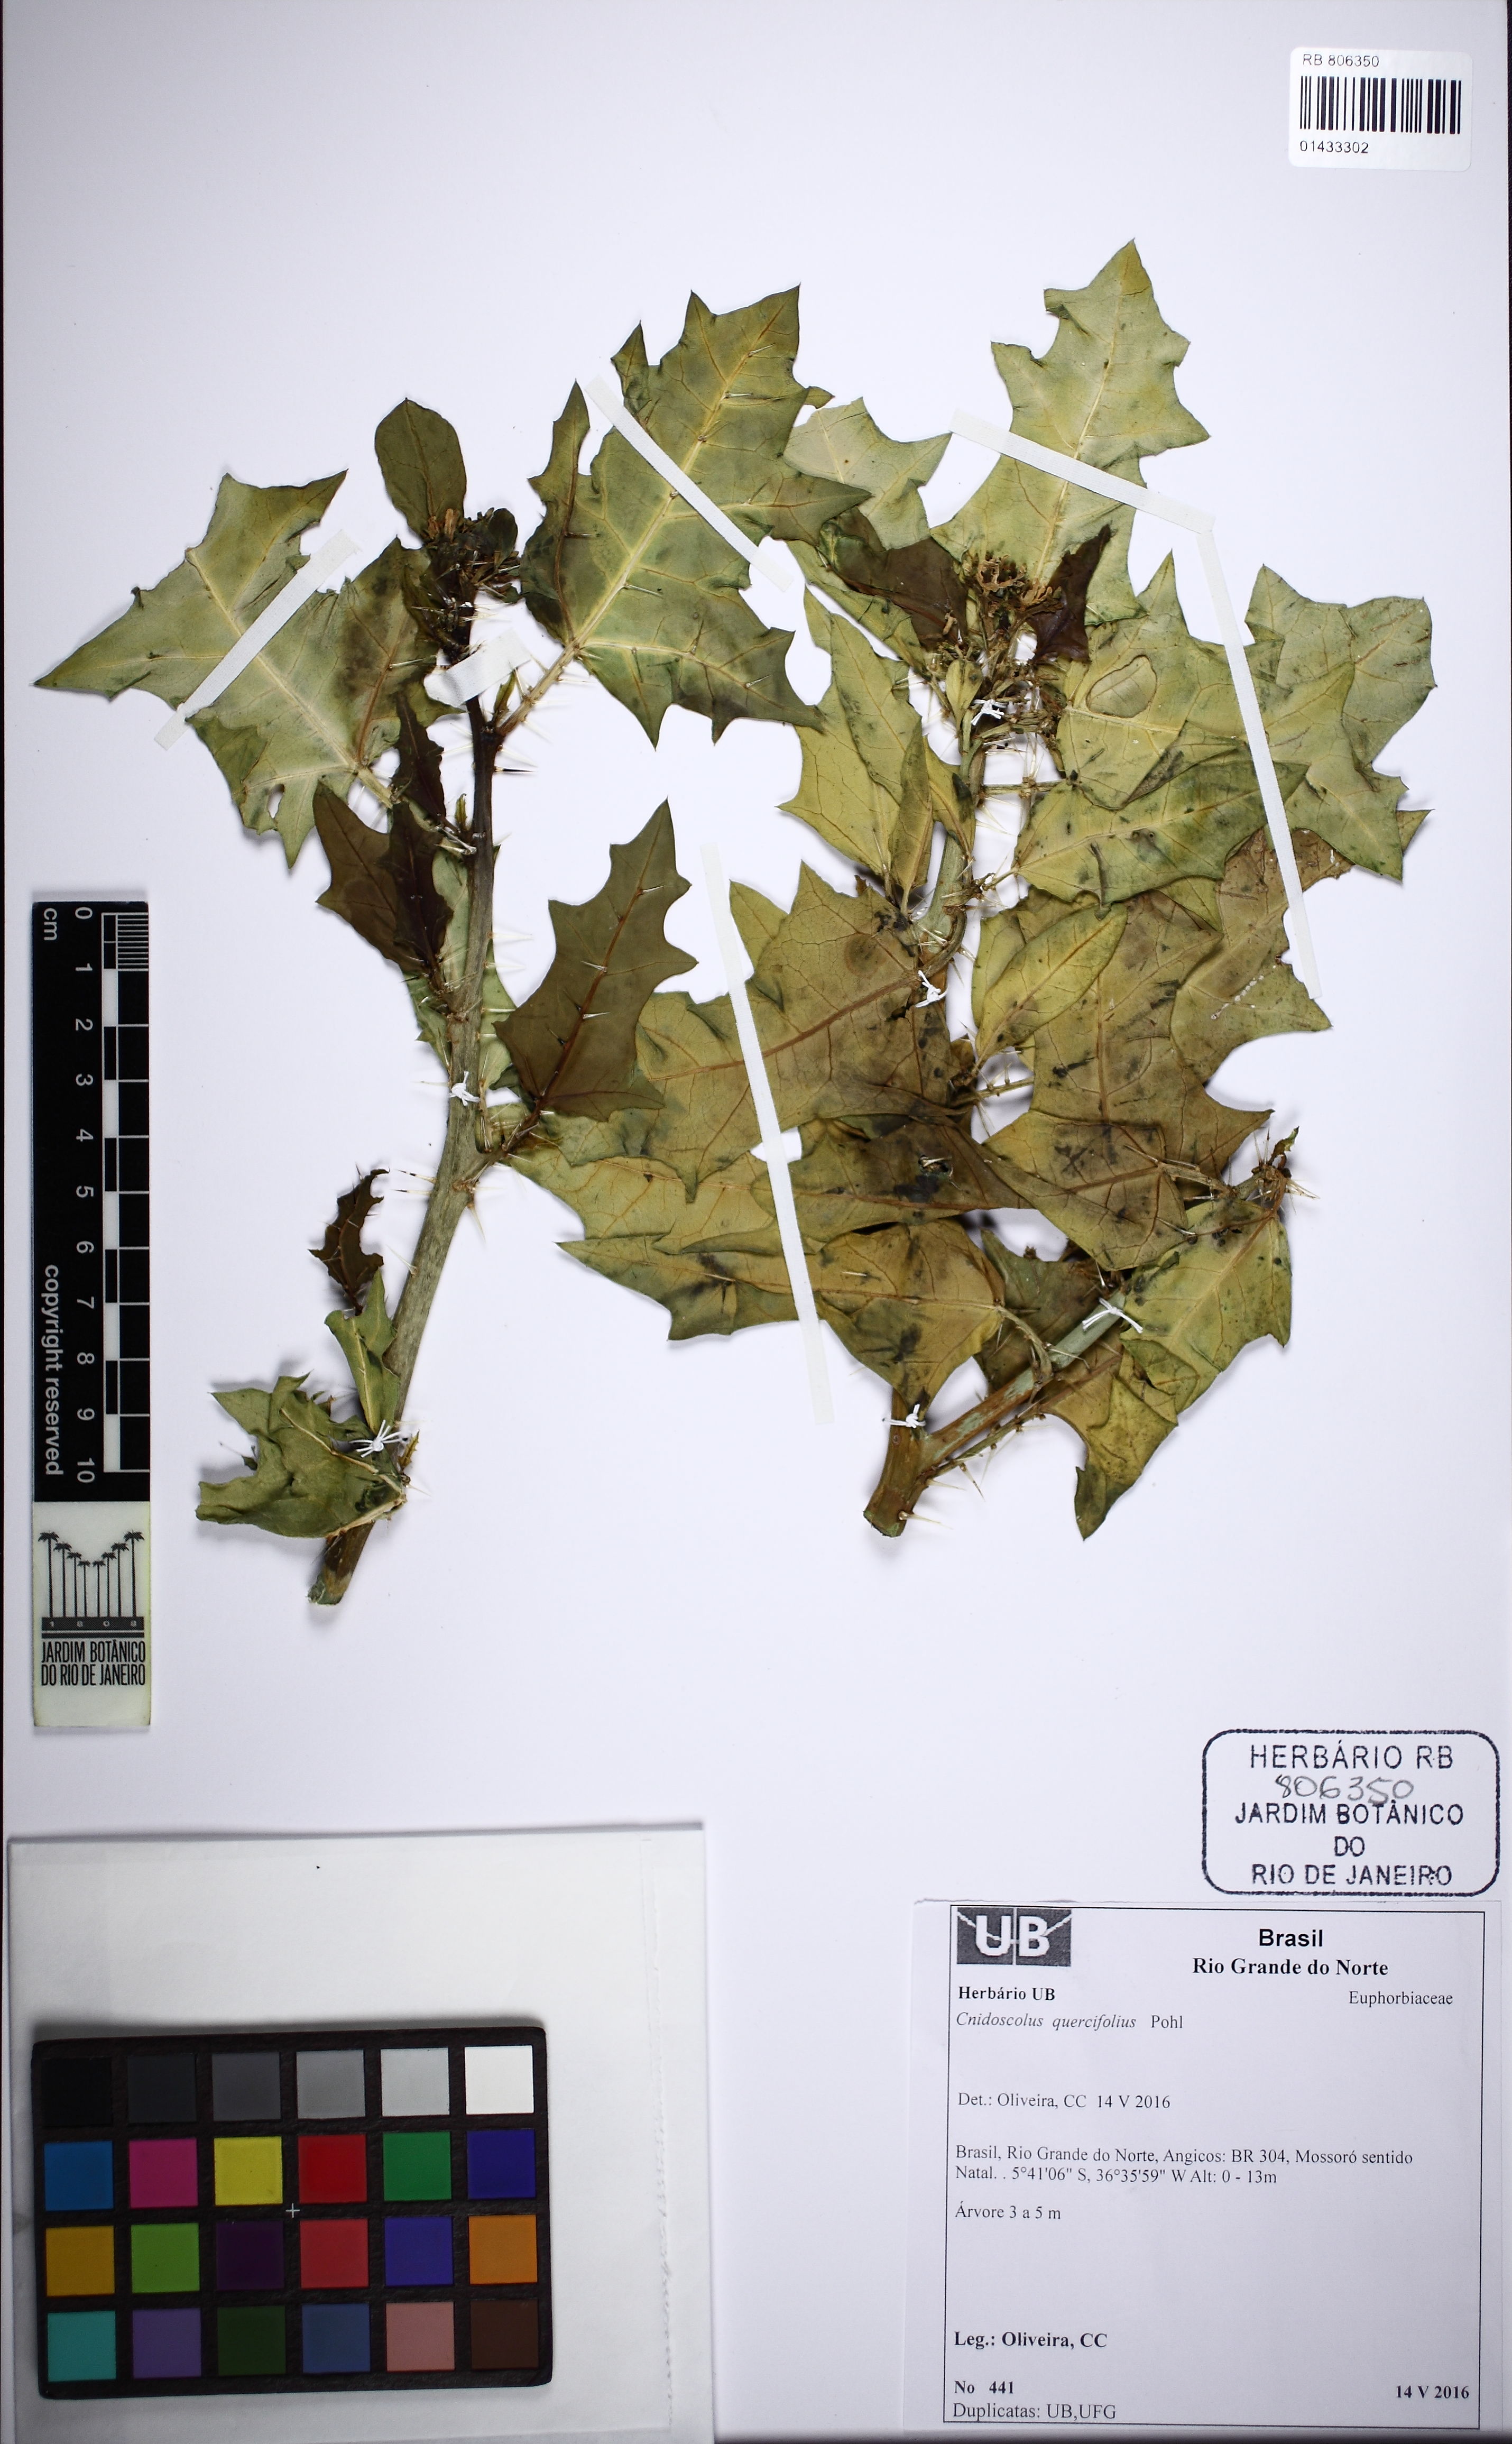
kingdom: Plantae
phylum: Tracheophyta
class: Magnoliopsida
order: Malpighiales
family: Euphorbiaceae
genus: Cnidoscolus
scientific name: Cnidoscolus quercifolius
